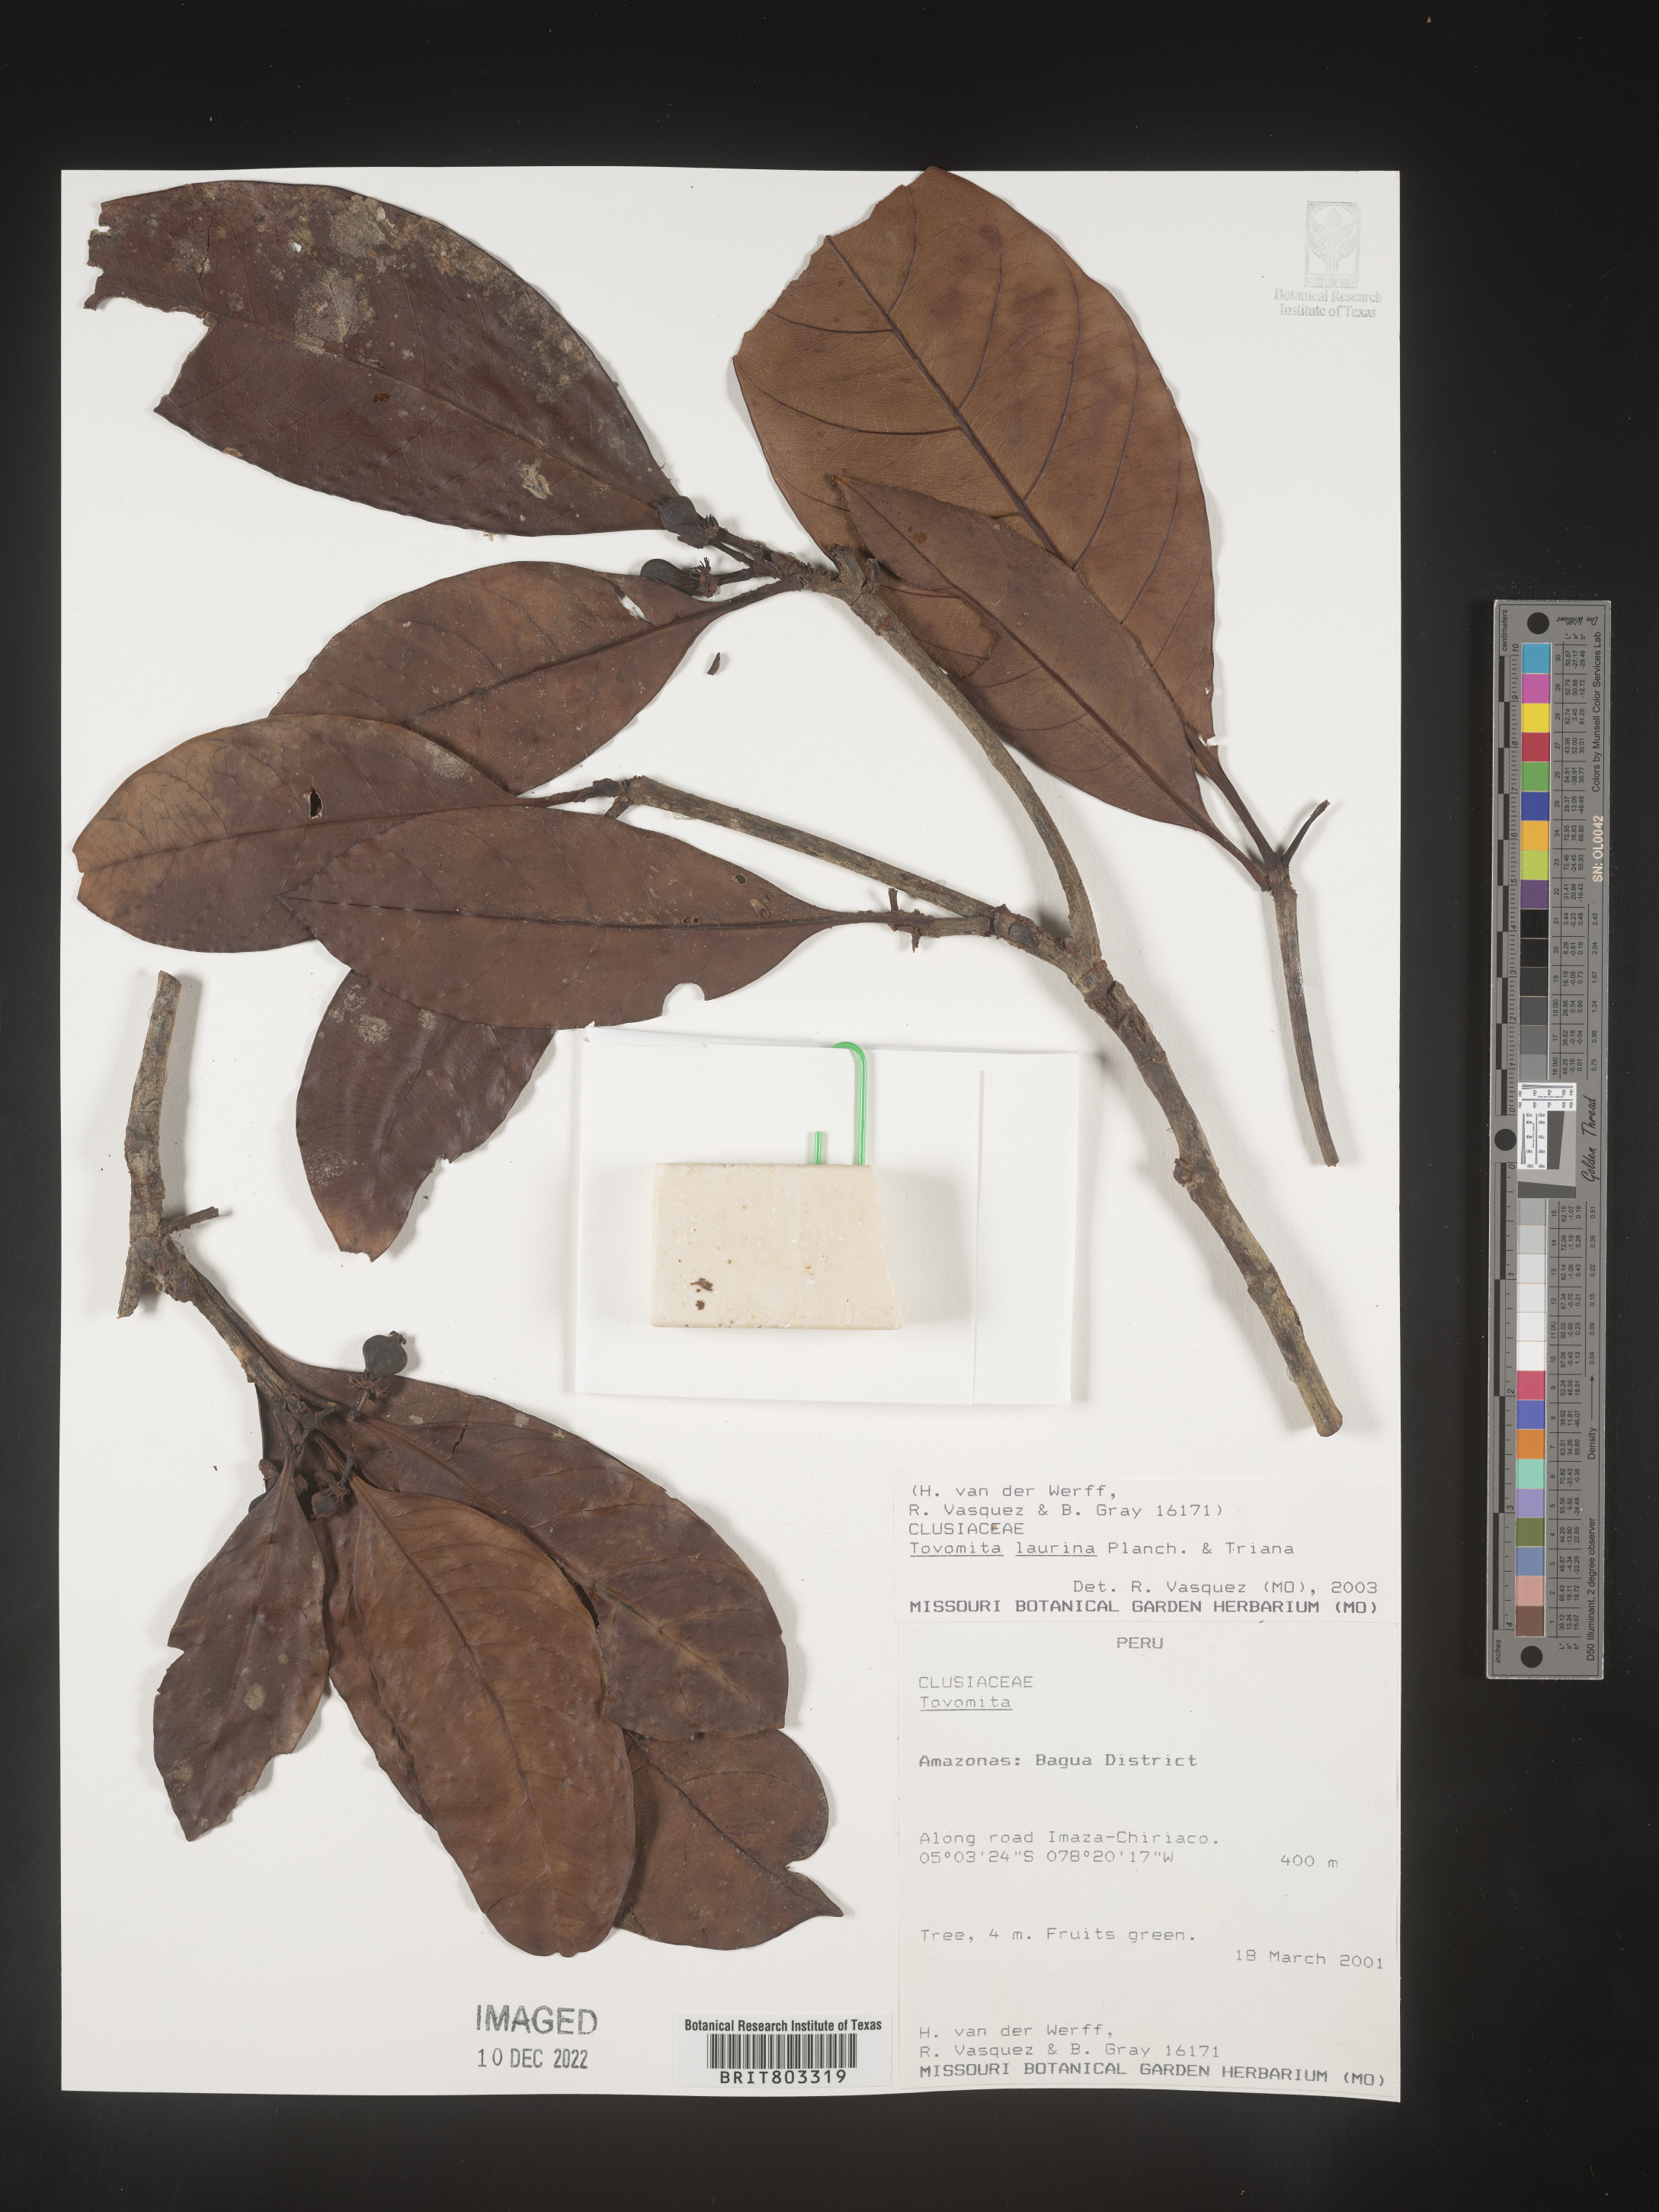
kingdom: Plantae
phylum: Tracheophyta
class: Magnoliopsida
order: Malpighiales
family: Clusiaceae
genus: Tovomita
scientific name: Tovomita
